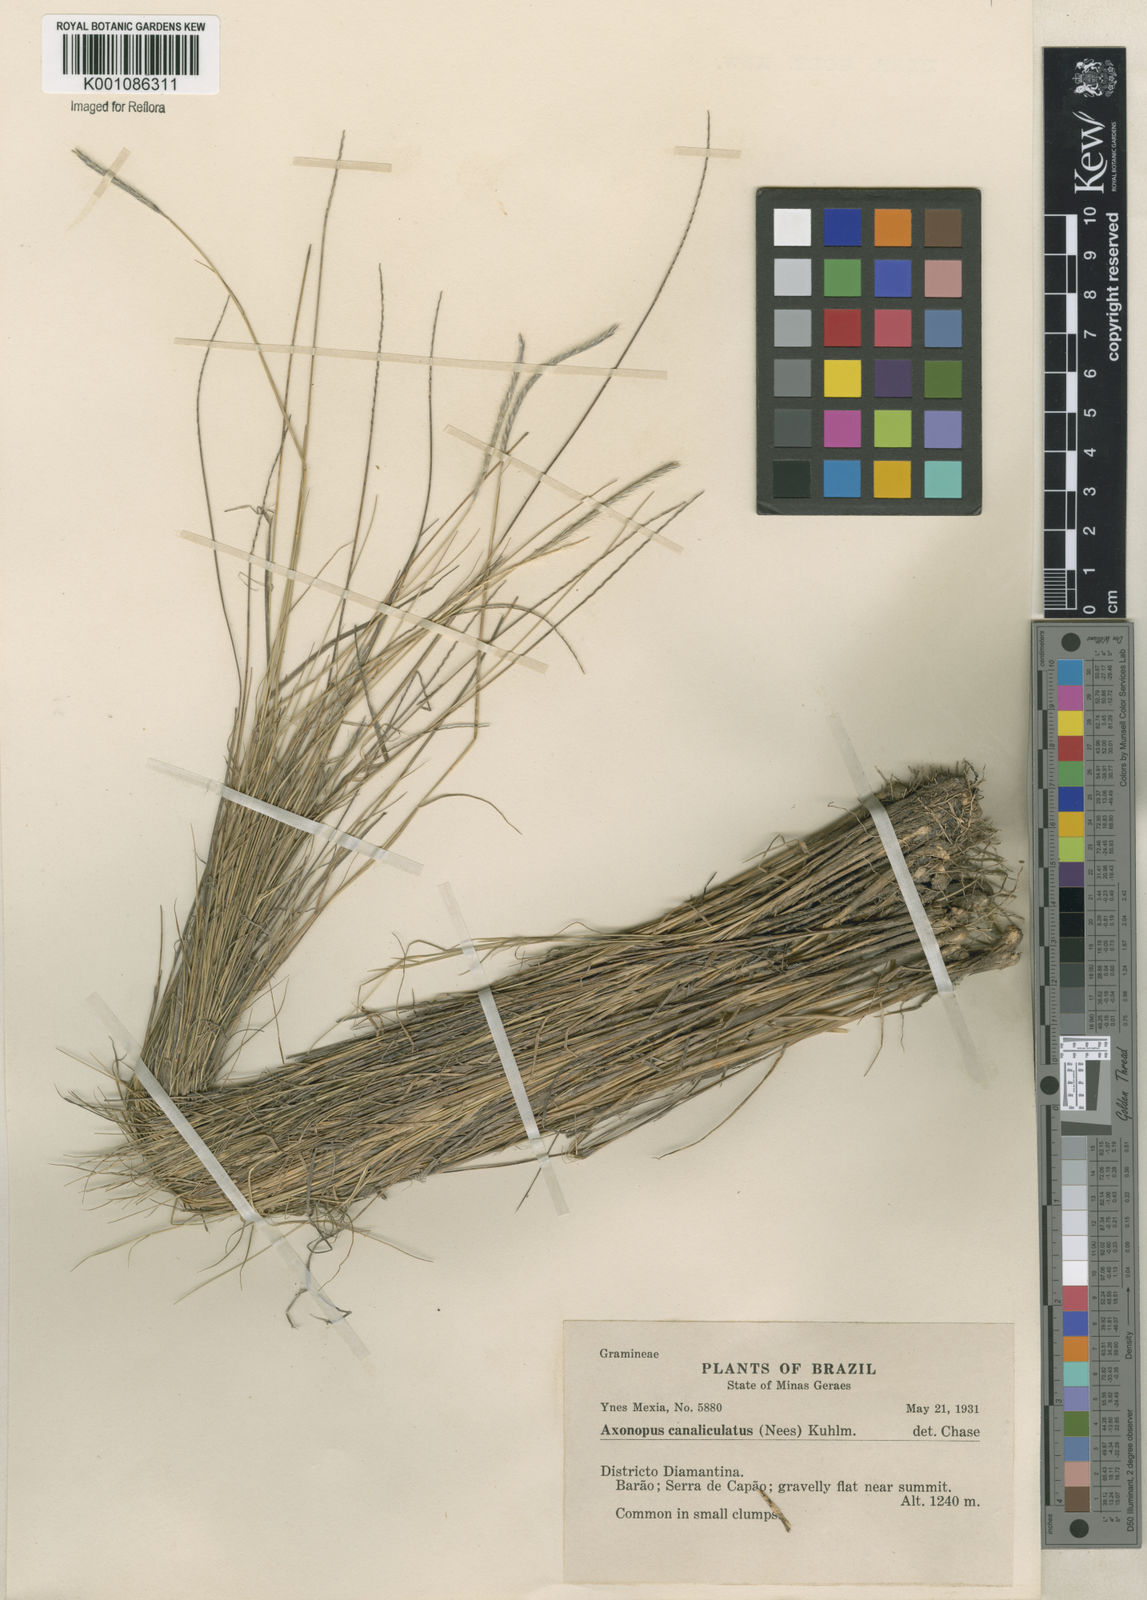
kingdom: Plantae
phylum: Tracheophyta
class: Liliopsida
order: Poales
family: Poaceae
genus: Axonopus
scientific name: Axonopus fastigiatus
